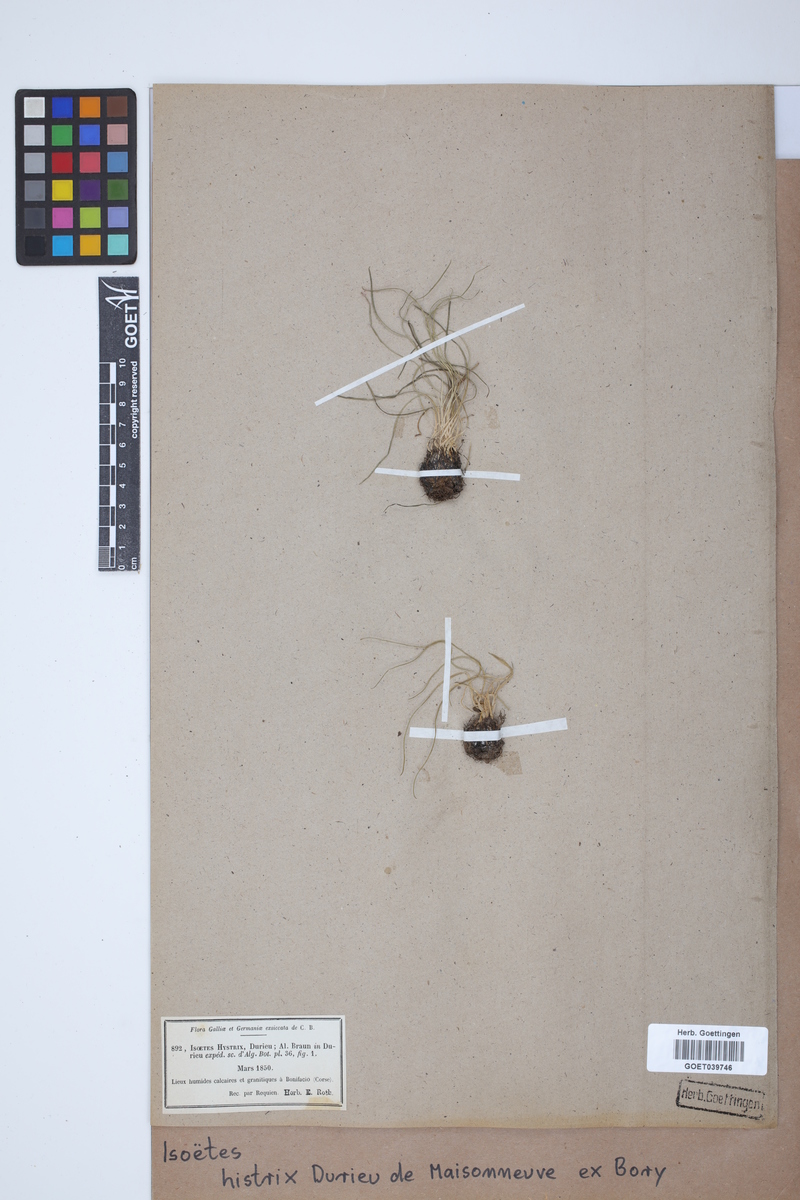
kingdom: Plantae
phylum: Tracheophyta
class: Lycopodiopsida
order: Isoetales
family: Isoetaceae
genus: Isoetes
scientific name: Isoetes histrix
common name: Land quillwort
